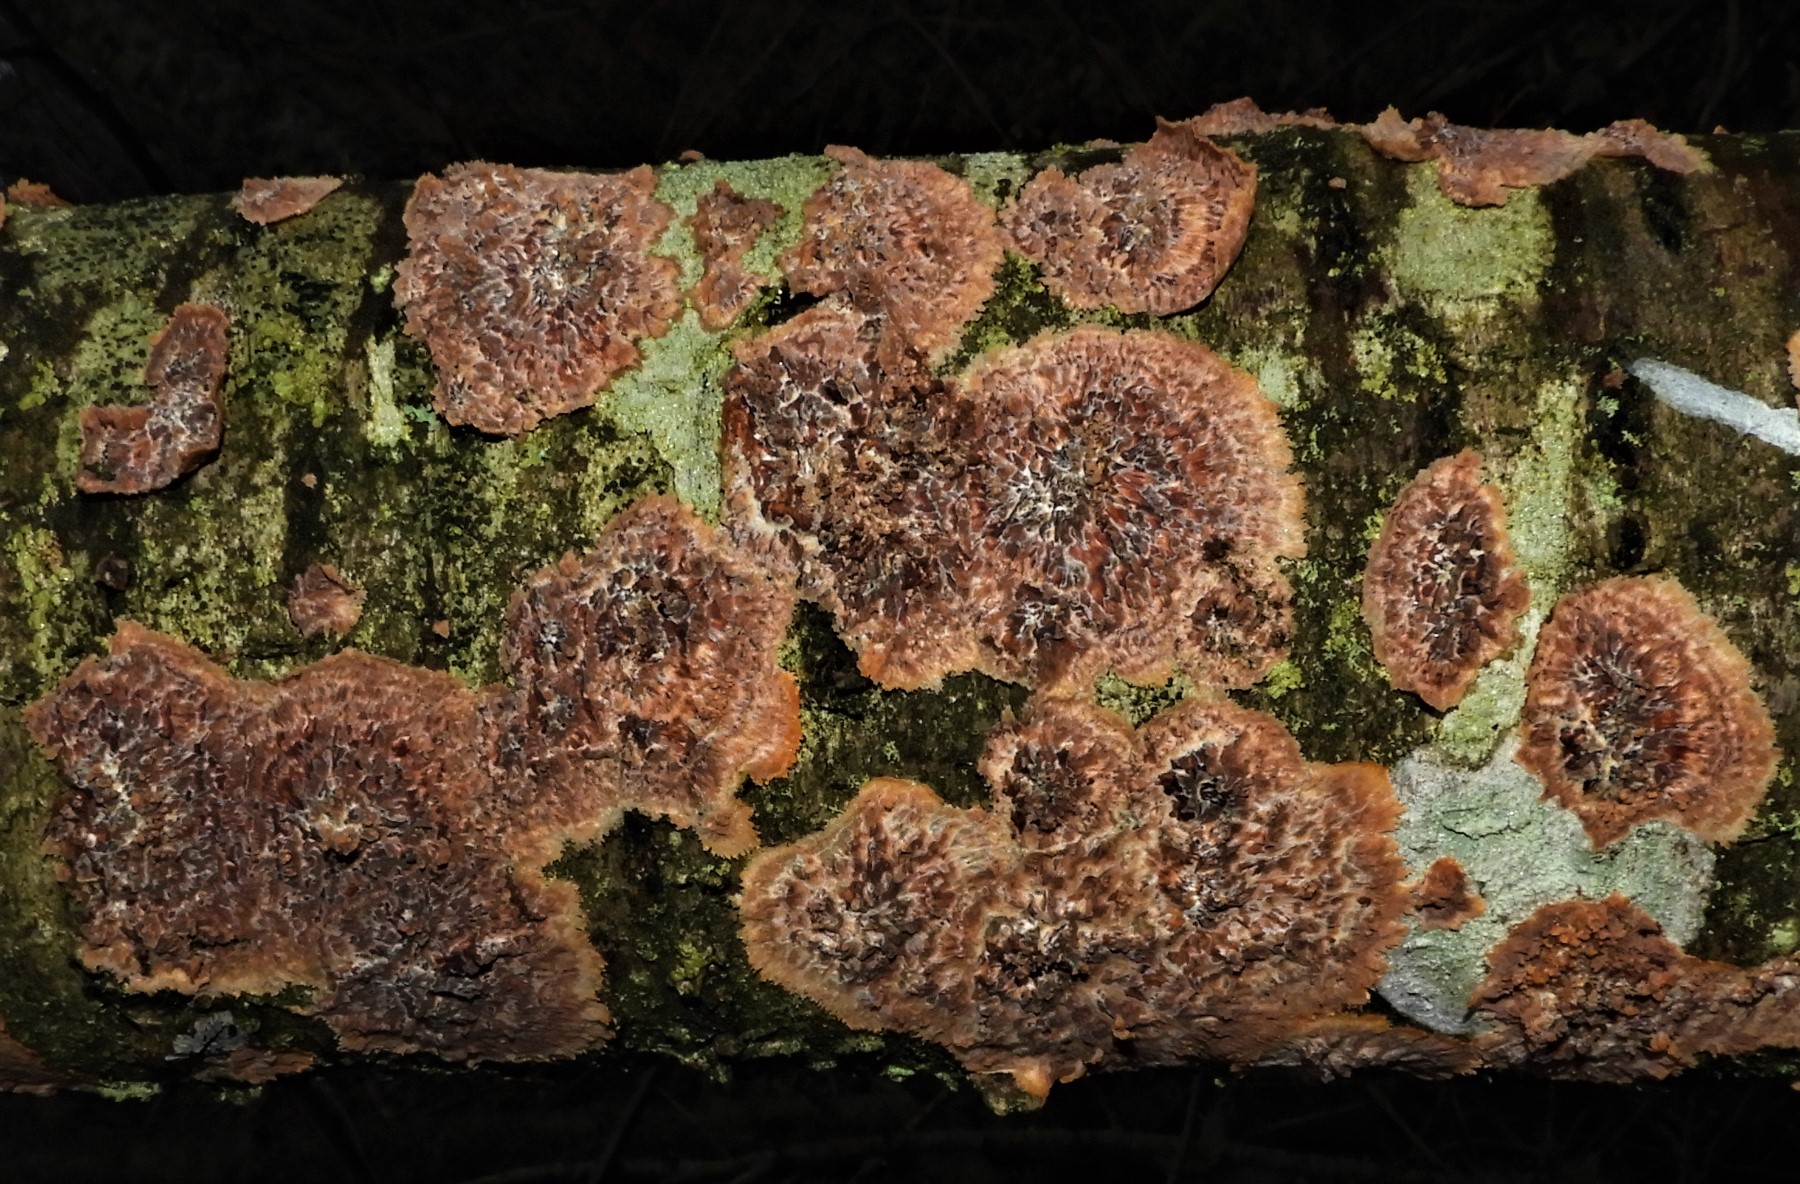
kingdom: Fungi
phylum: Basidiomycota
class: Agaricomycetes
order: Polyporales
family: Meruliaceae
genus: Phlebia
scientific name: Phlebia radiata
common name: stråle-åresvamp
